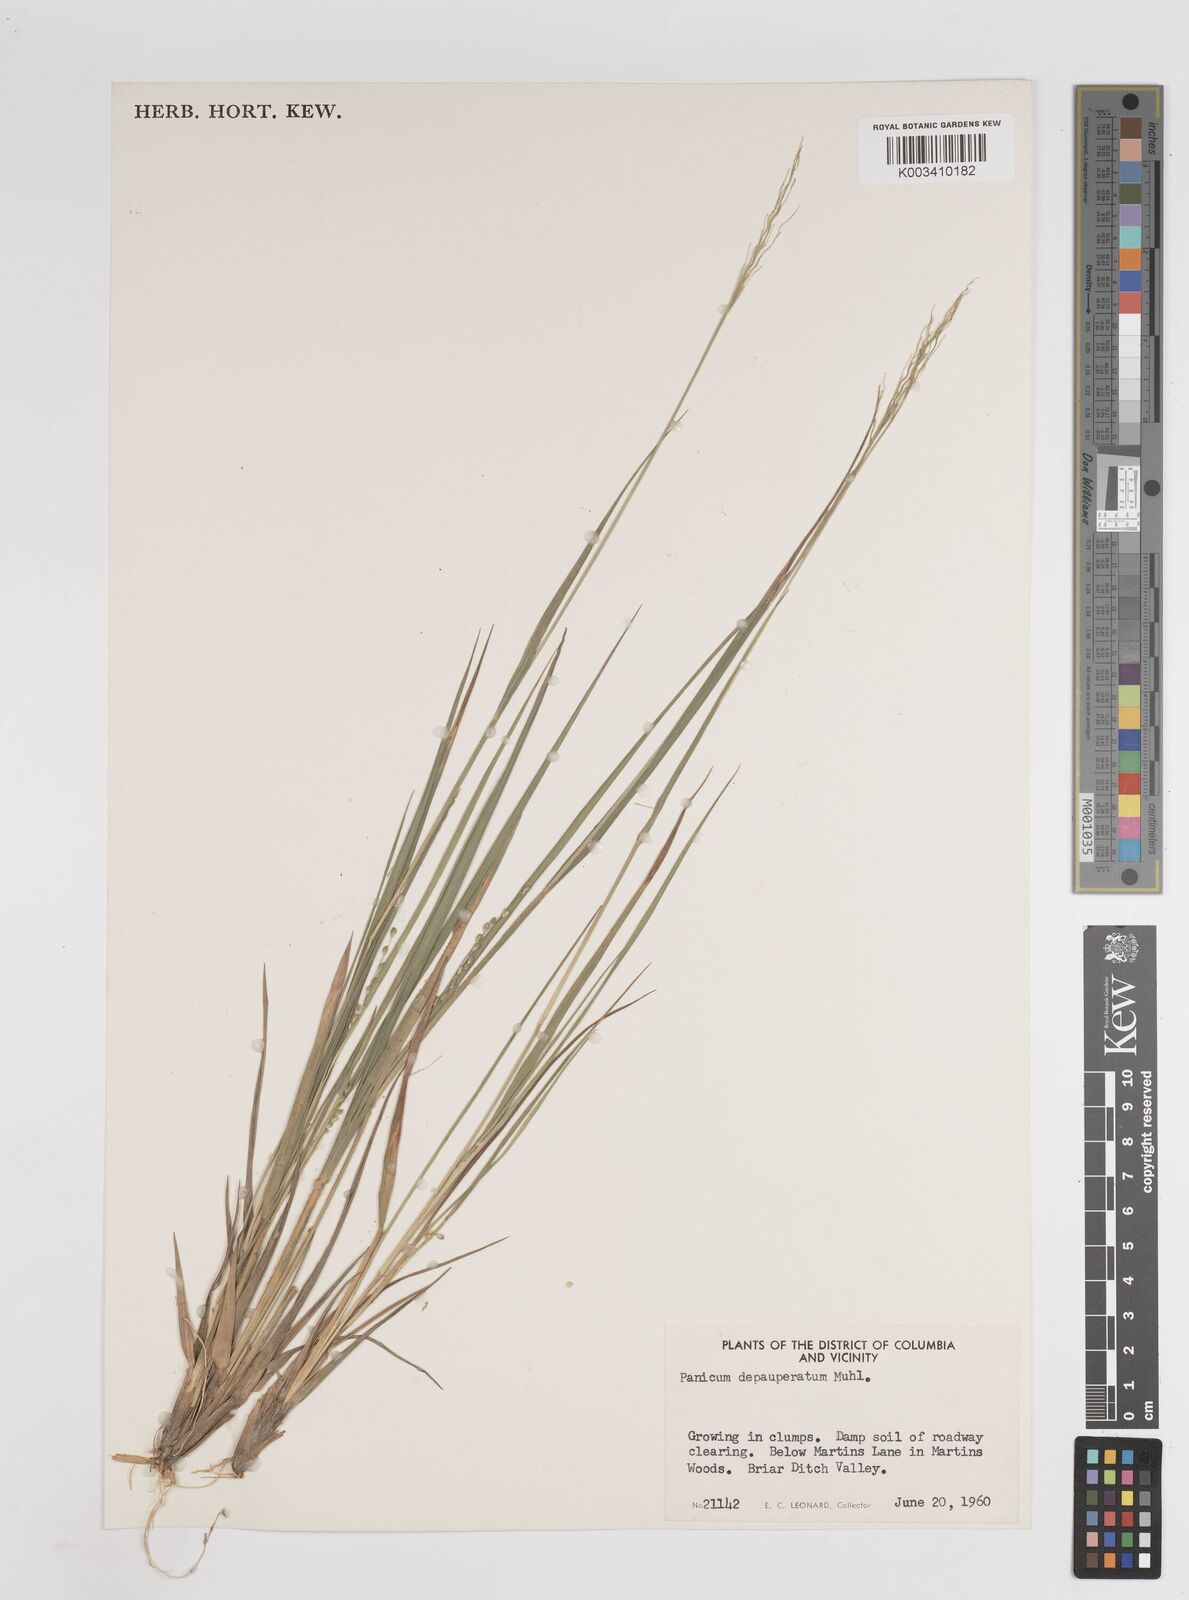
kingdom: Plantae
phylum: Tracheophyta
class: Liliopsida
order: Poales
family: Poaceae
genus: Dichanthelium
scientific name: Dichanthelium depauperatum
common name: Depauperate panicgrass
